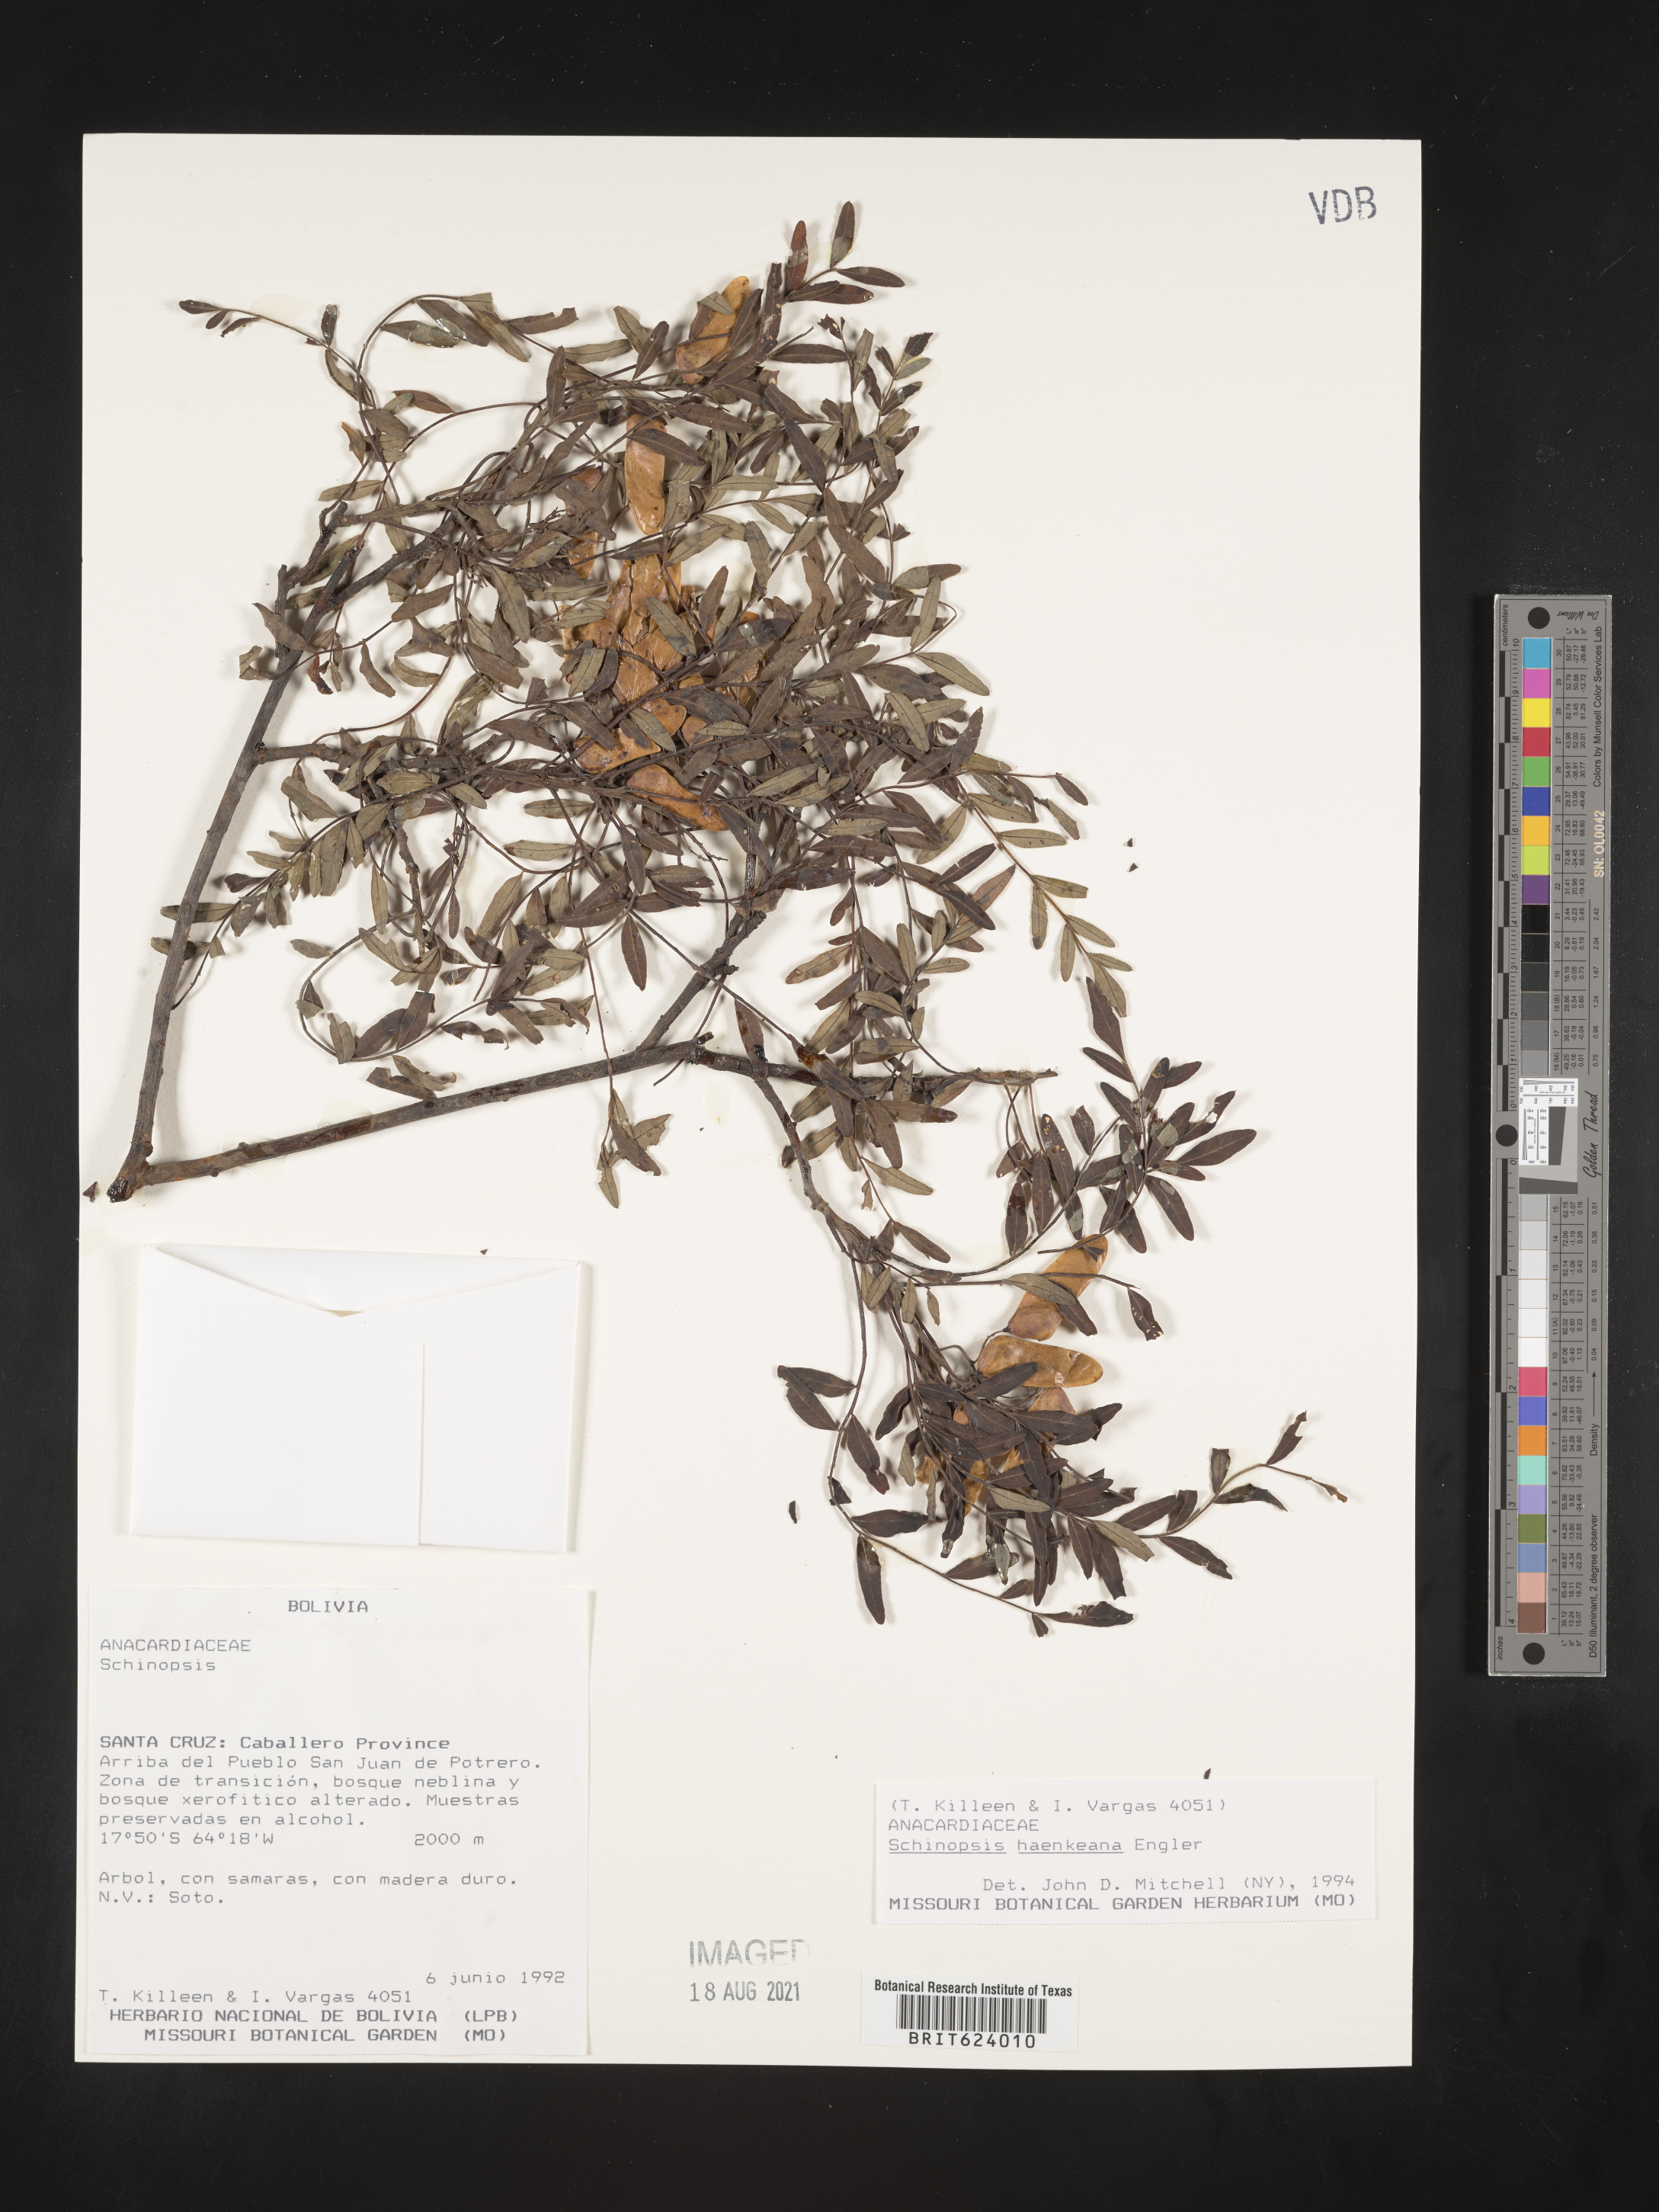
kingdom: Plantae
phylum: Tracheophyta
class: Magnoliopsida
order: Sapindales
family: Anacardiaceae
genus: Schinopsis
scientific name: Schinopsis marginata
